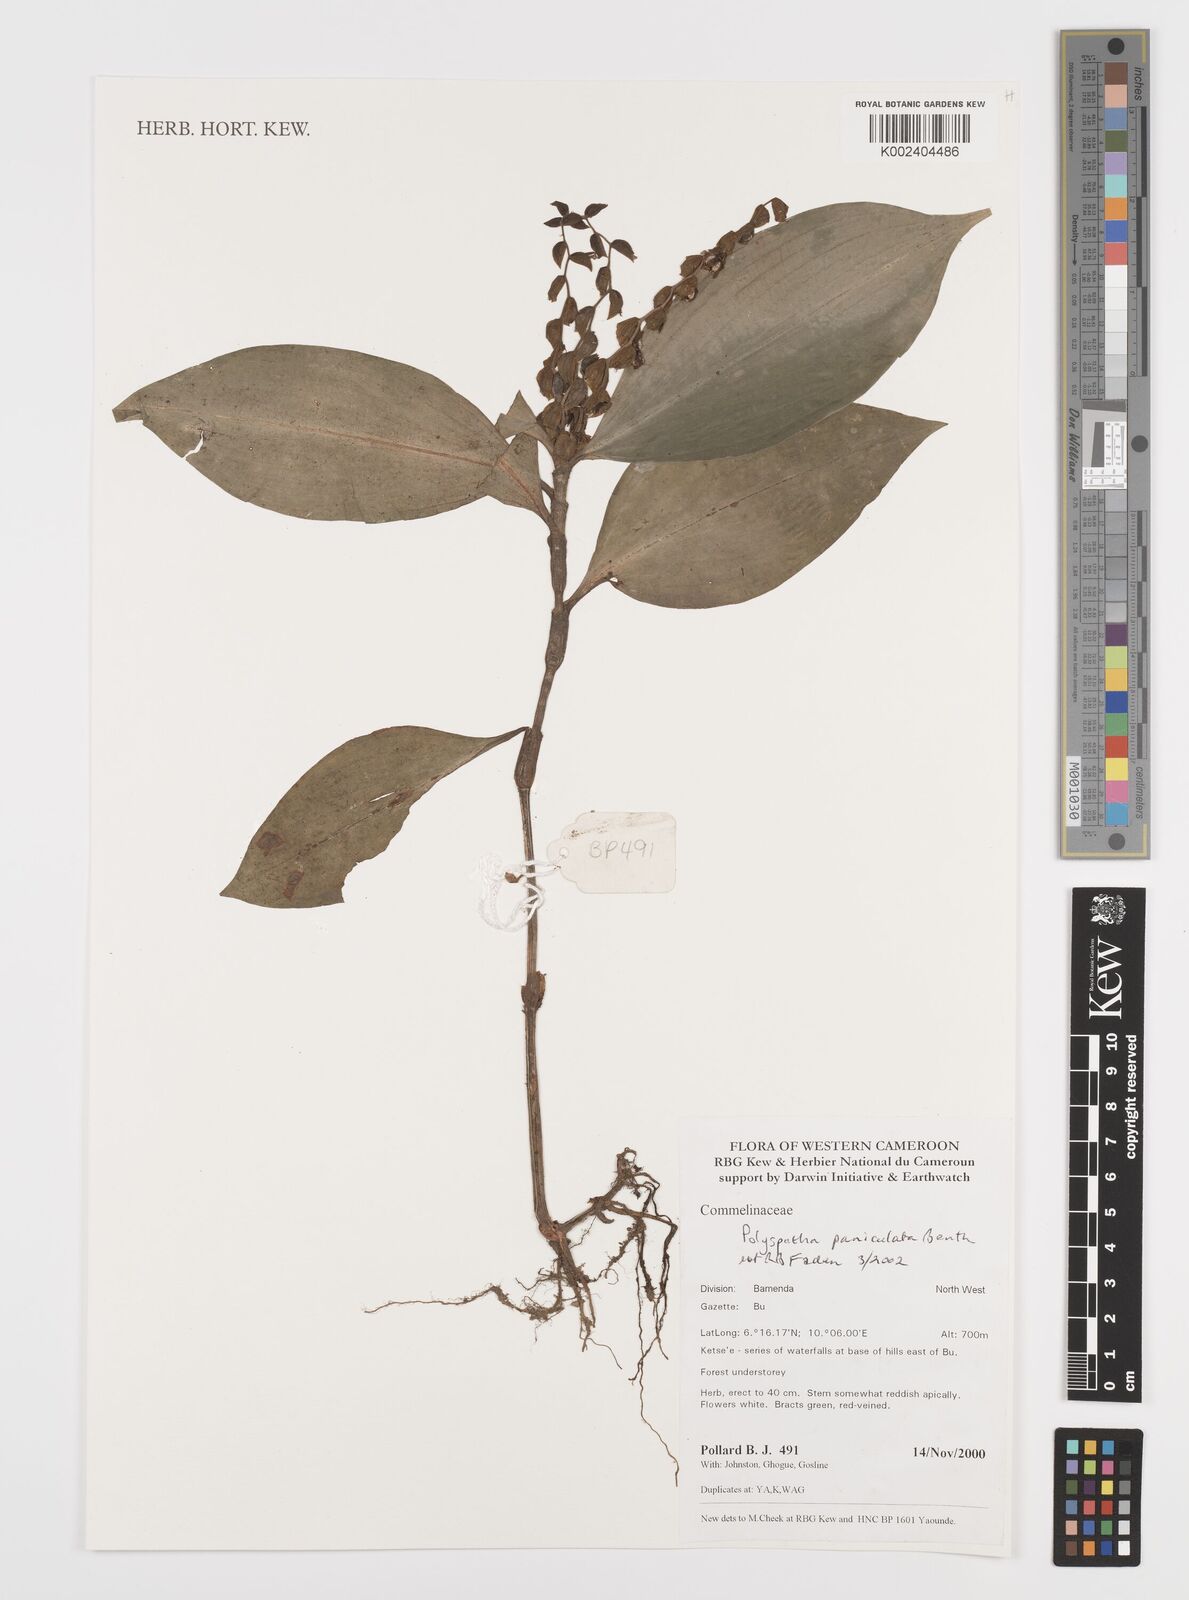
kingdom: Plantae
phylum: Tracheophyta
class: Liliopsida
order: Commelinales
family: Commelinaceae
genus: Polyspatha
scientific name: Polyspatha paniculata
